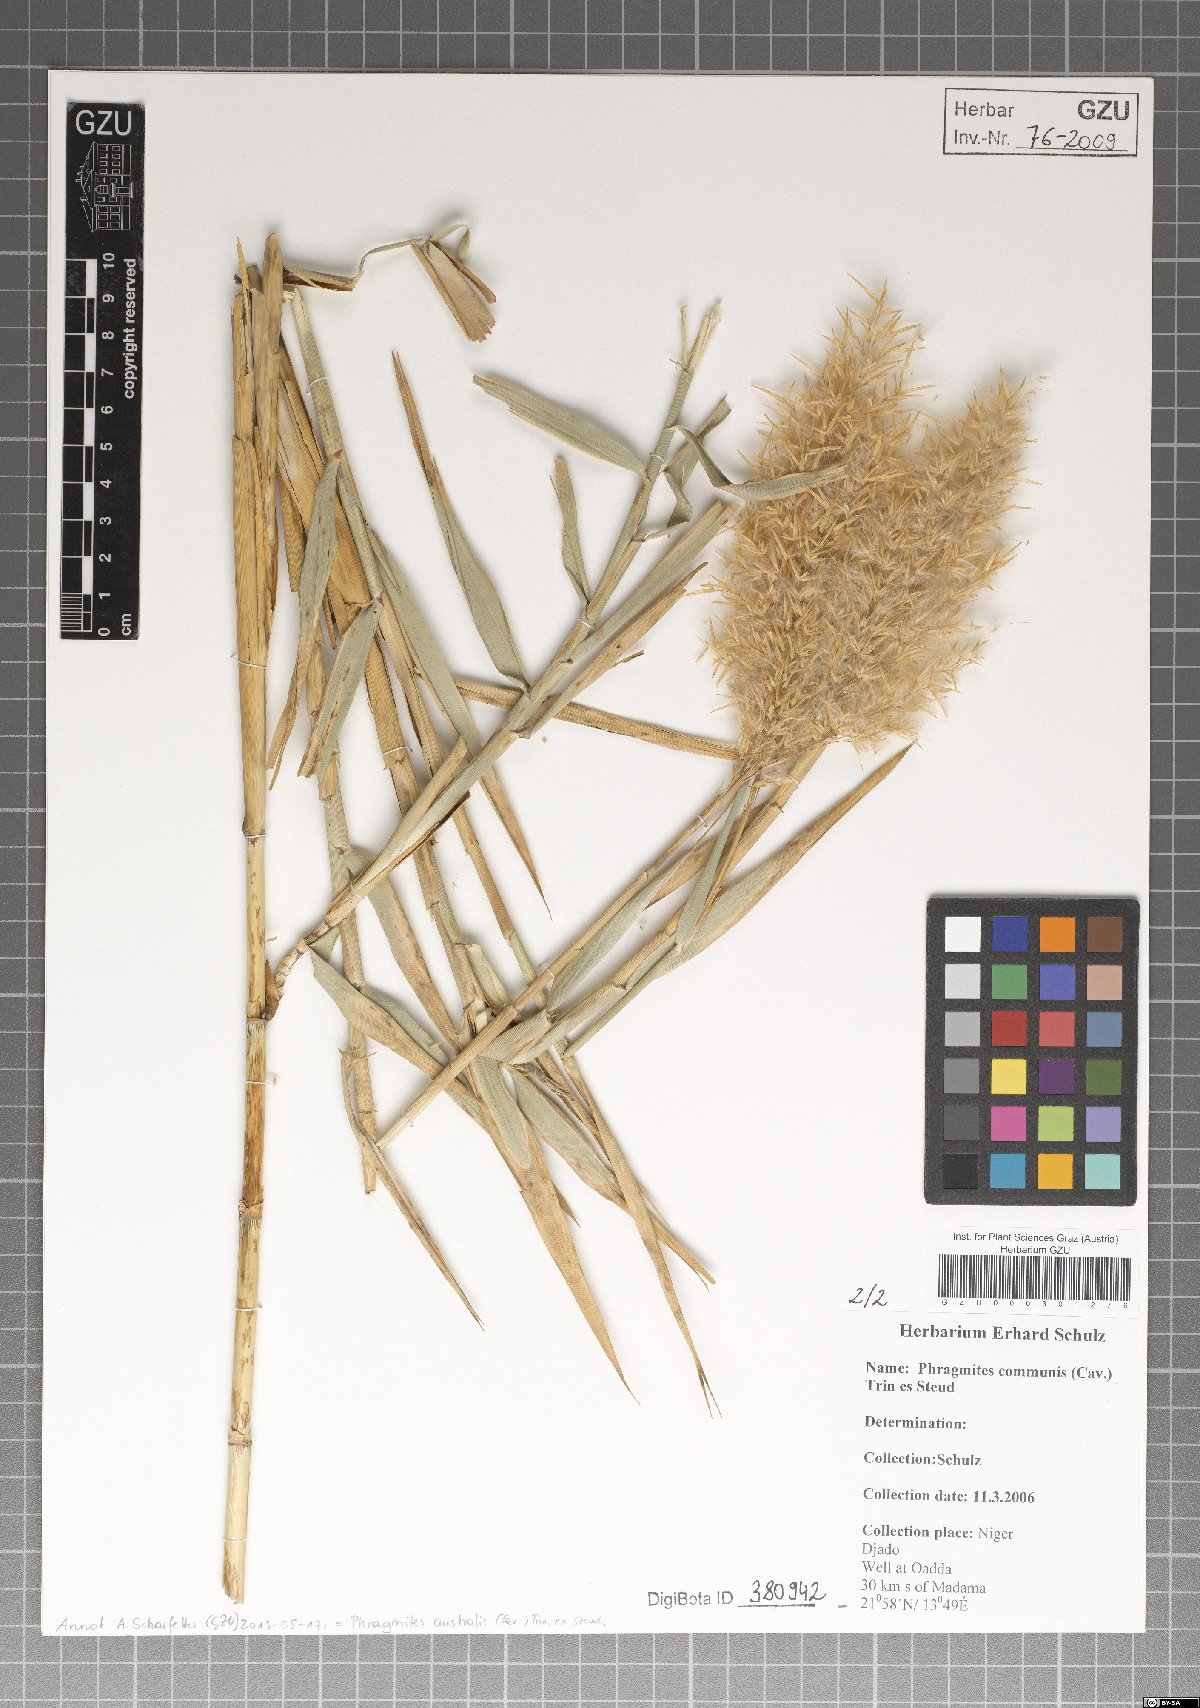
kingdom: Plantae
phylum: Tracheophyta
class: Liliopsida
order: Poales
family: Poaceae
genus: Phragmites
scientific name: Phragmites australis
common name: Common reed
